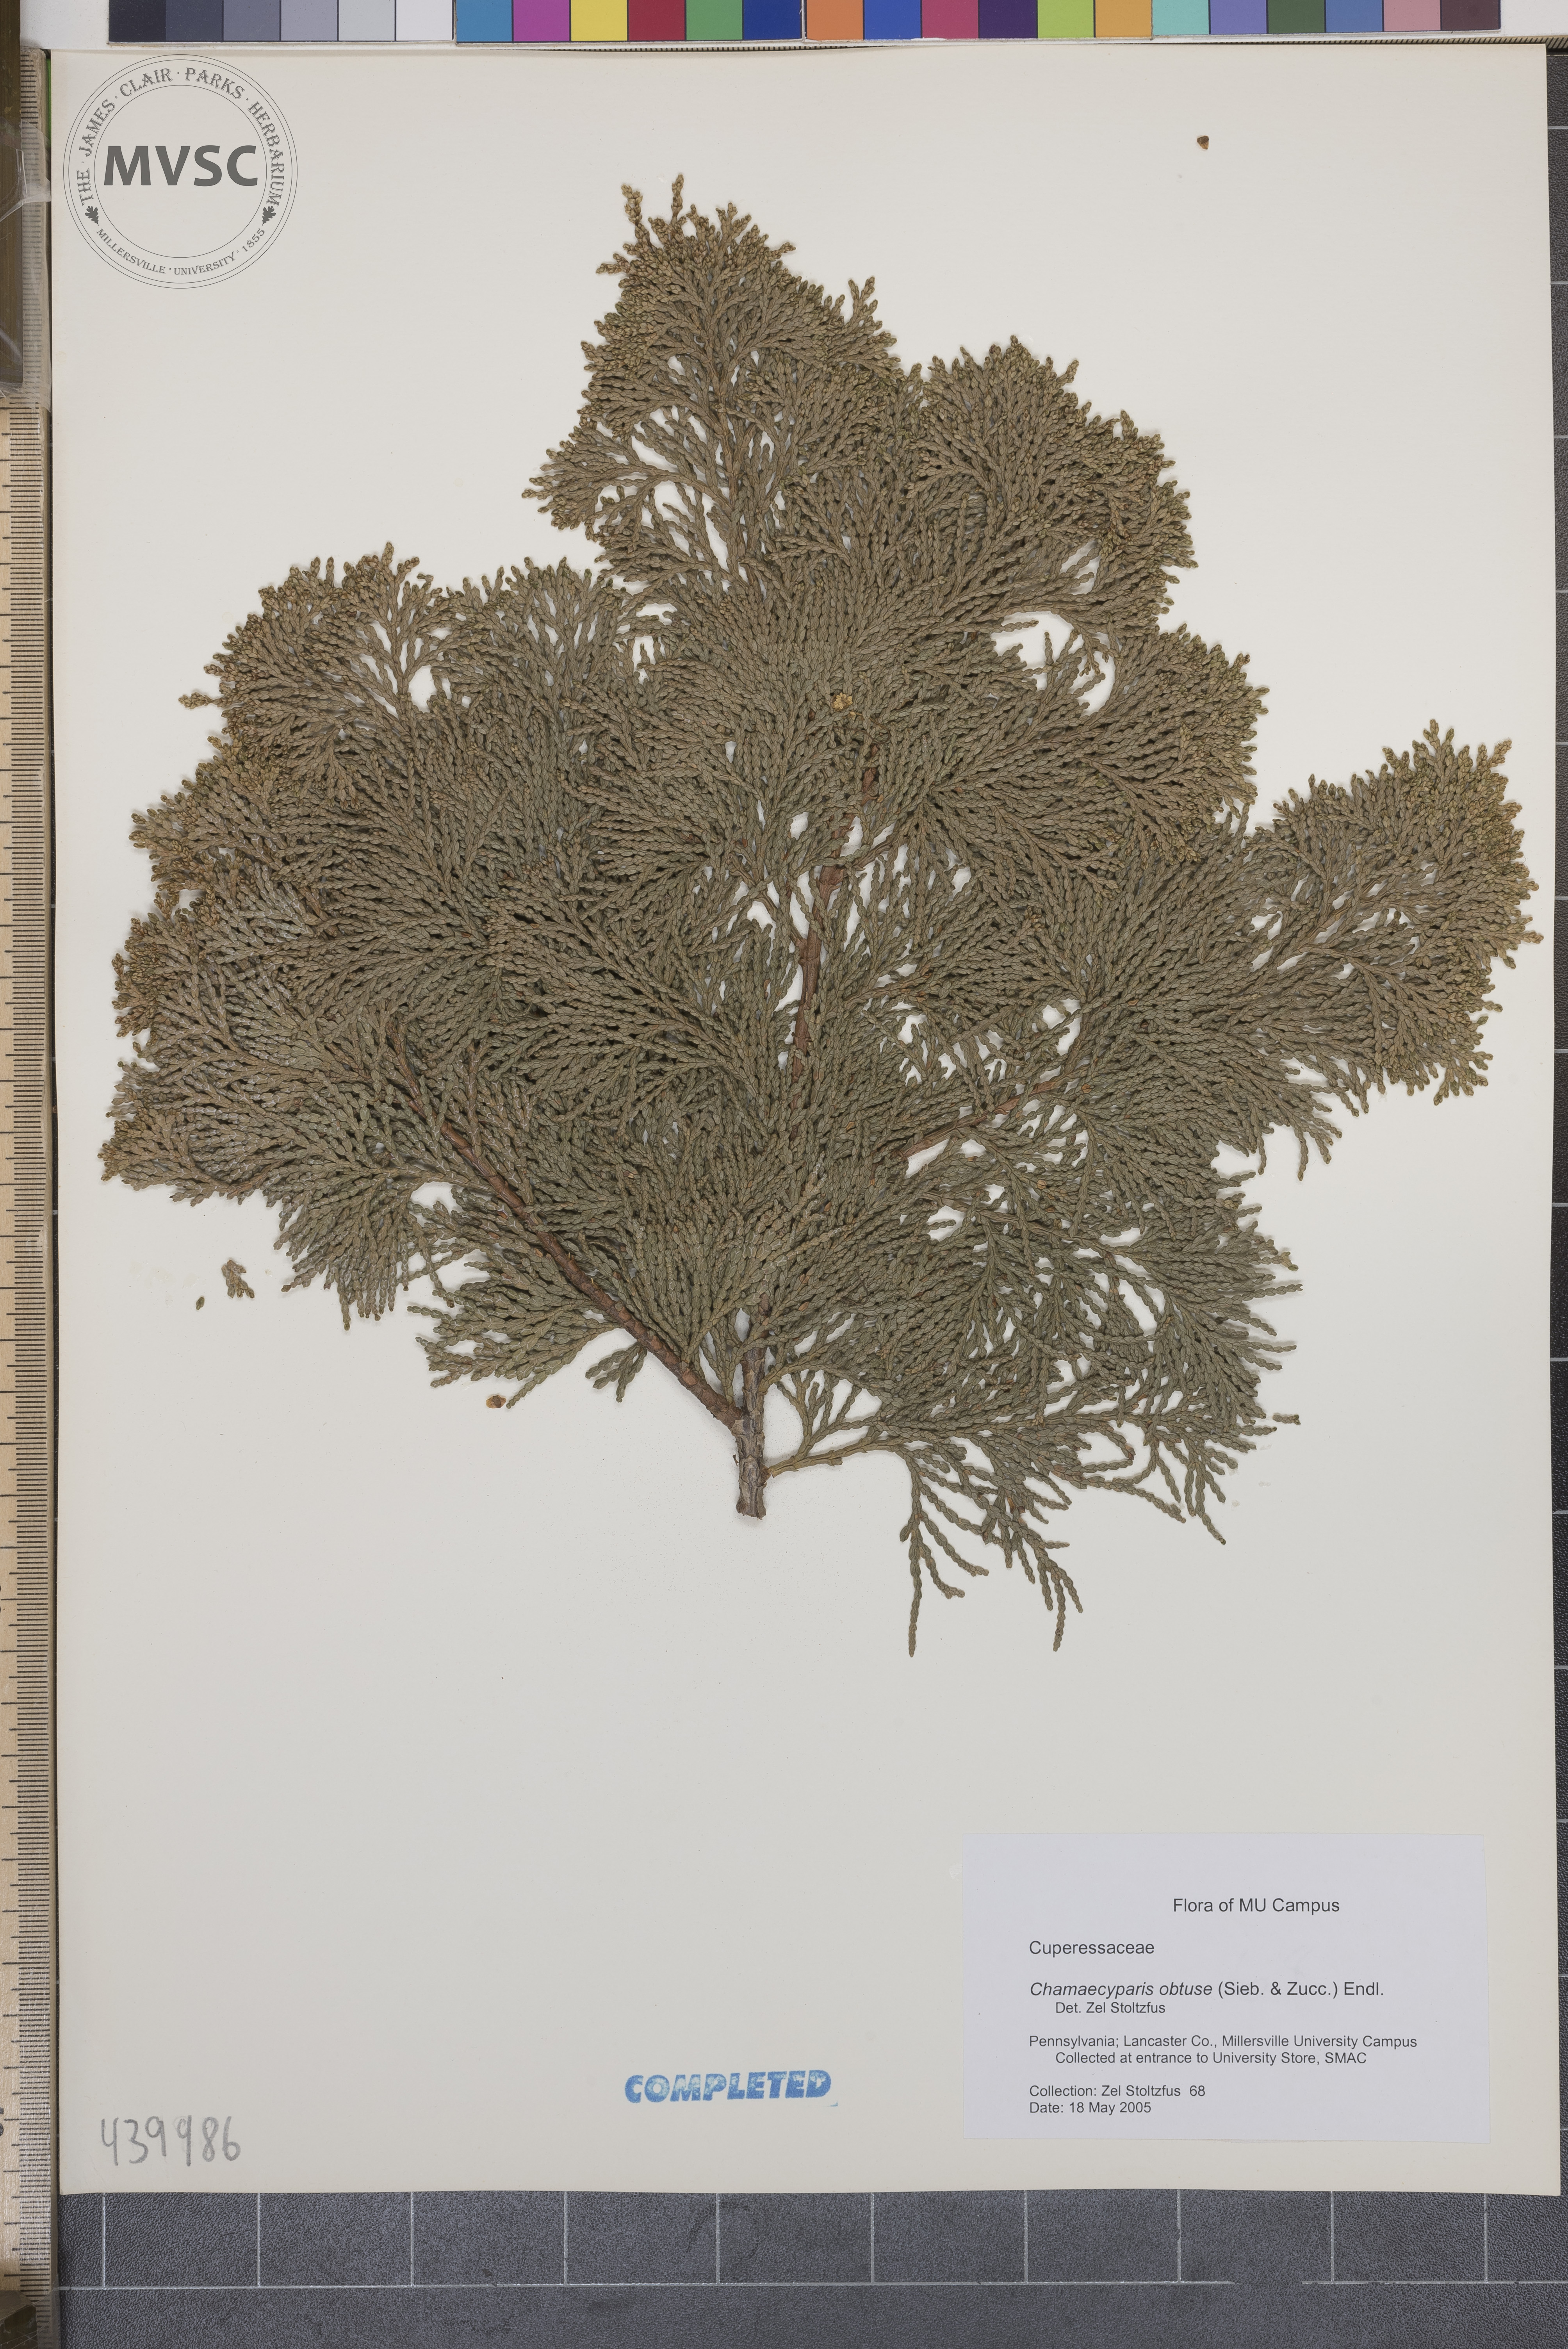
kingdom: Plantae
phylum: Tracheophyta
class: Pinopsida
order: Pinales
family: Cupressaceae
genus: Chamaecyparis
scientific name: Chamaecyparis obtusa
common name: Hinoki false cypress
